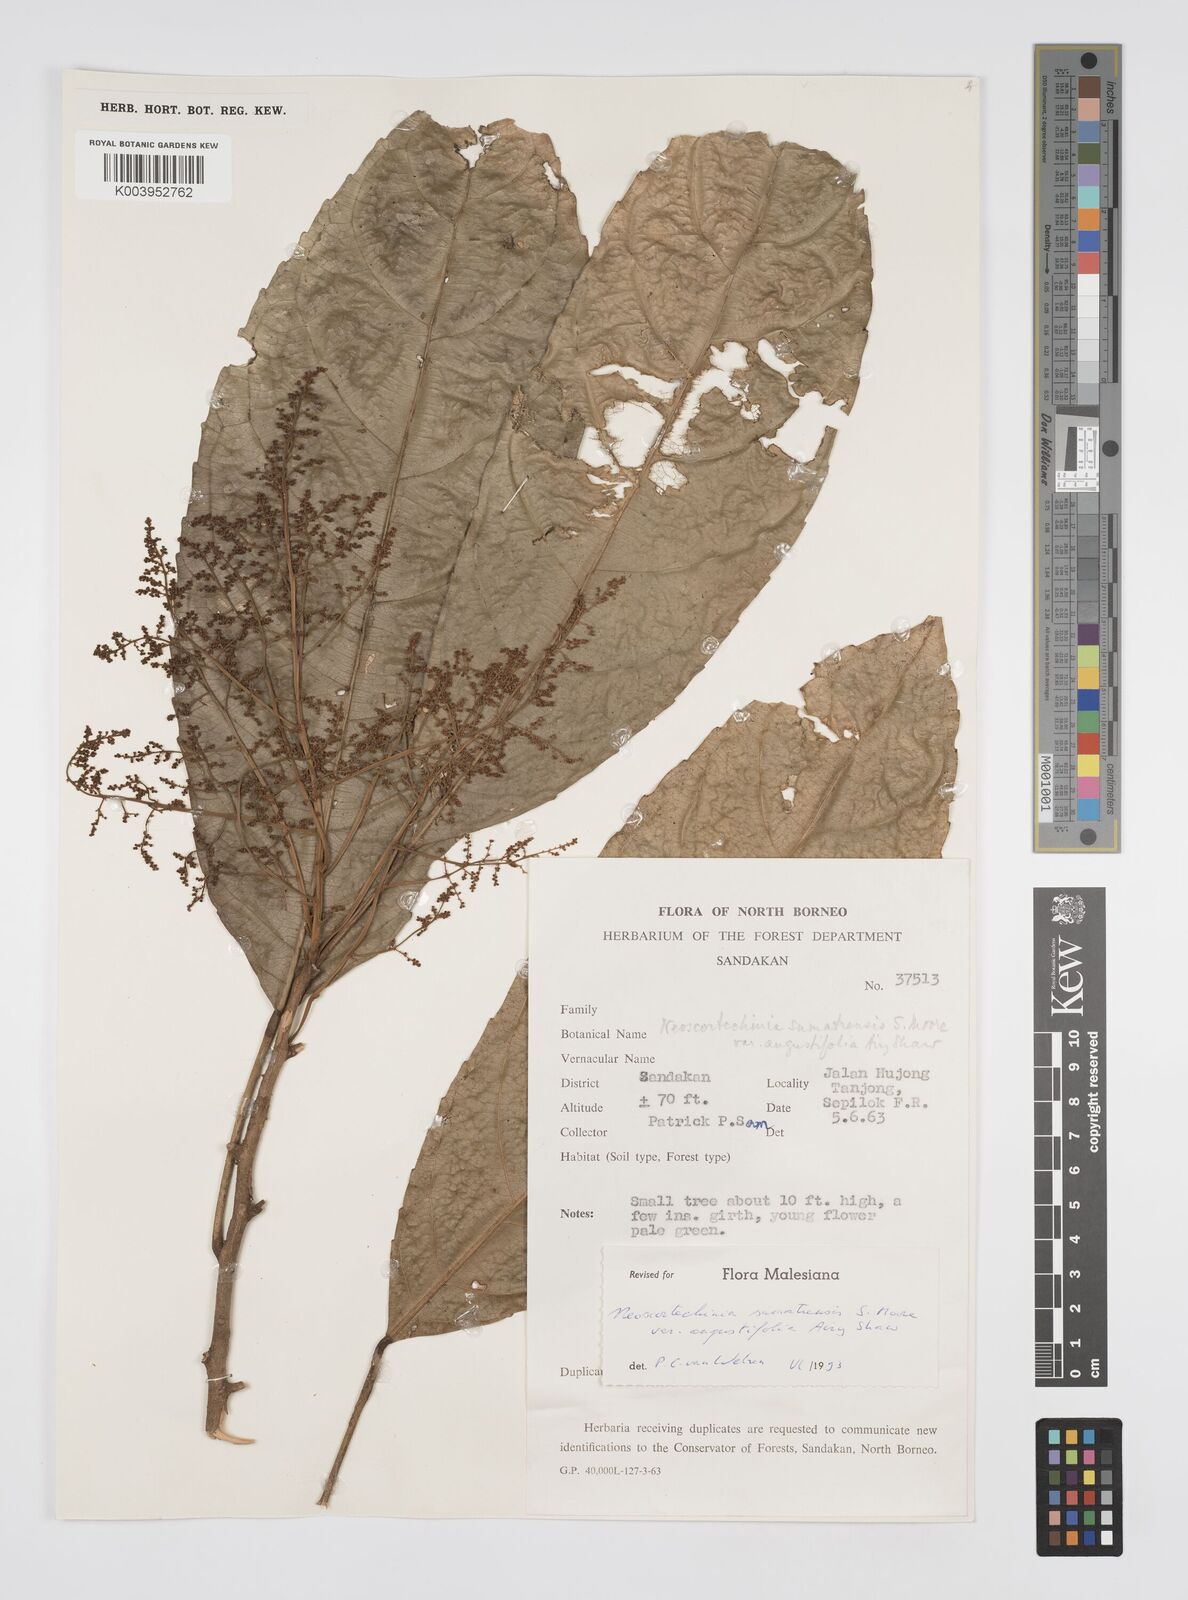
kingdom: Plantae
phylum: Tracheophyta
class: Magnoliopsida
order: Malpighiales
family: Euphorbiaceae
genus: Neoscortechinia
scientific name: Neoscortechinia angustifolia
